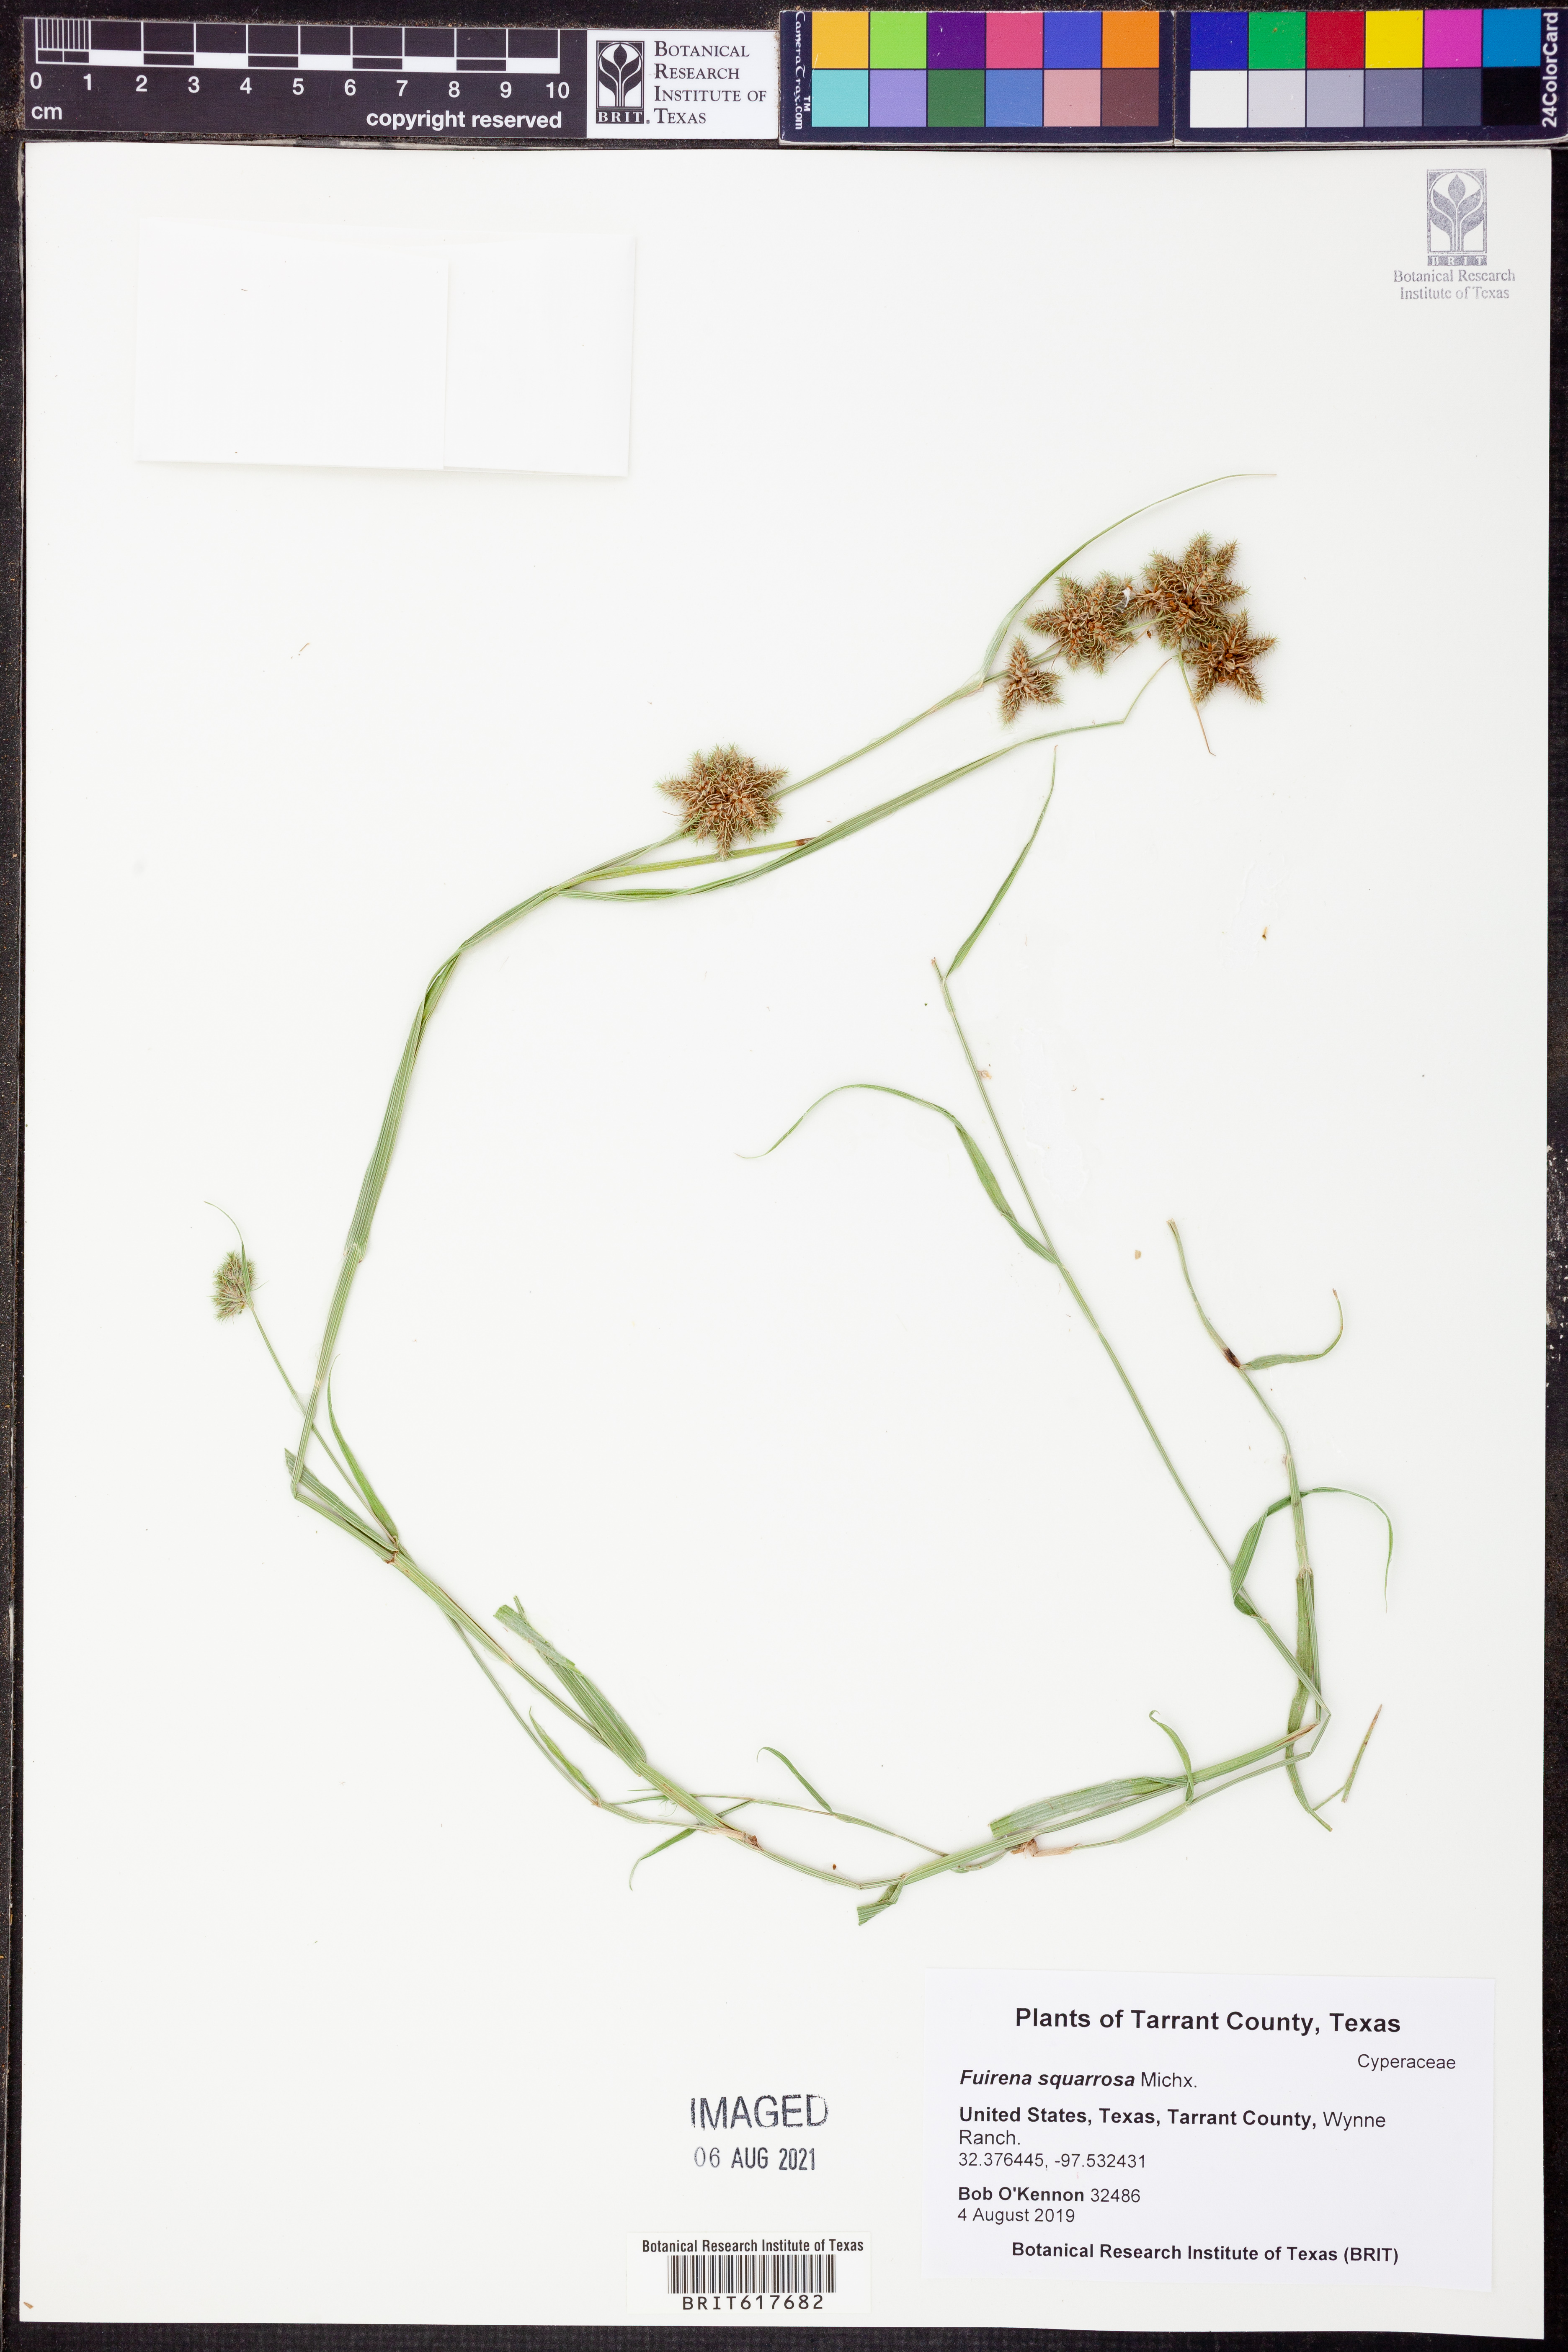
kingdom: Plantae
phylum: Tracheophyta
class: Liliopsida
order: Poales
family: Cyperaceae
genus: Fuirena
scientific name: Fuirena squarrosa
